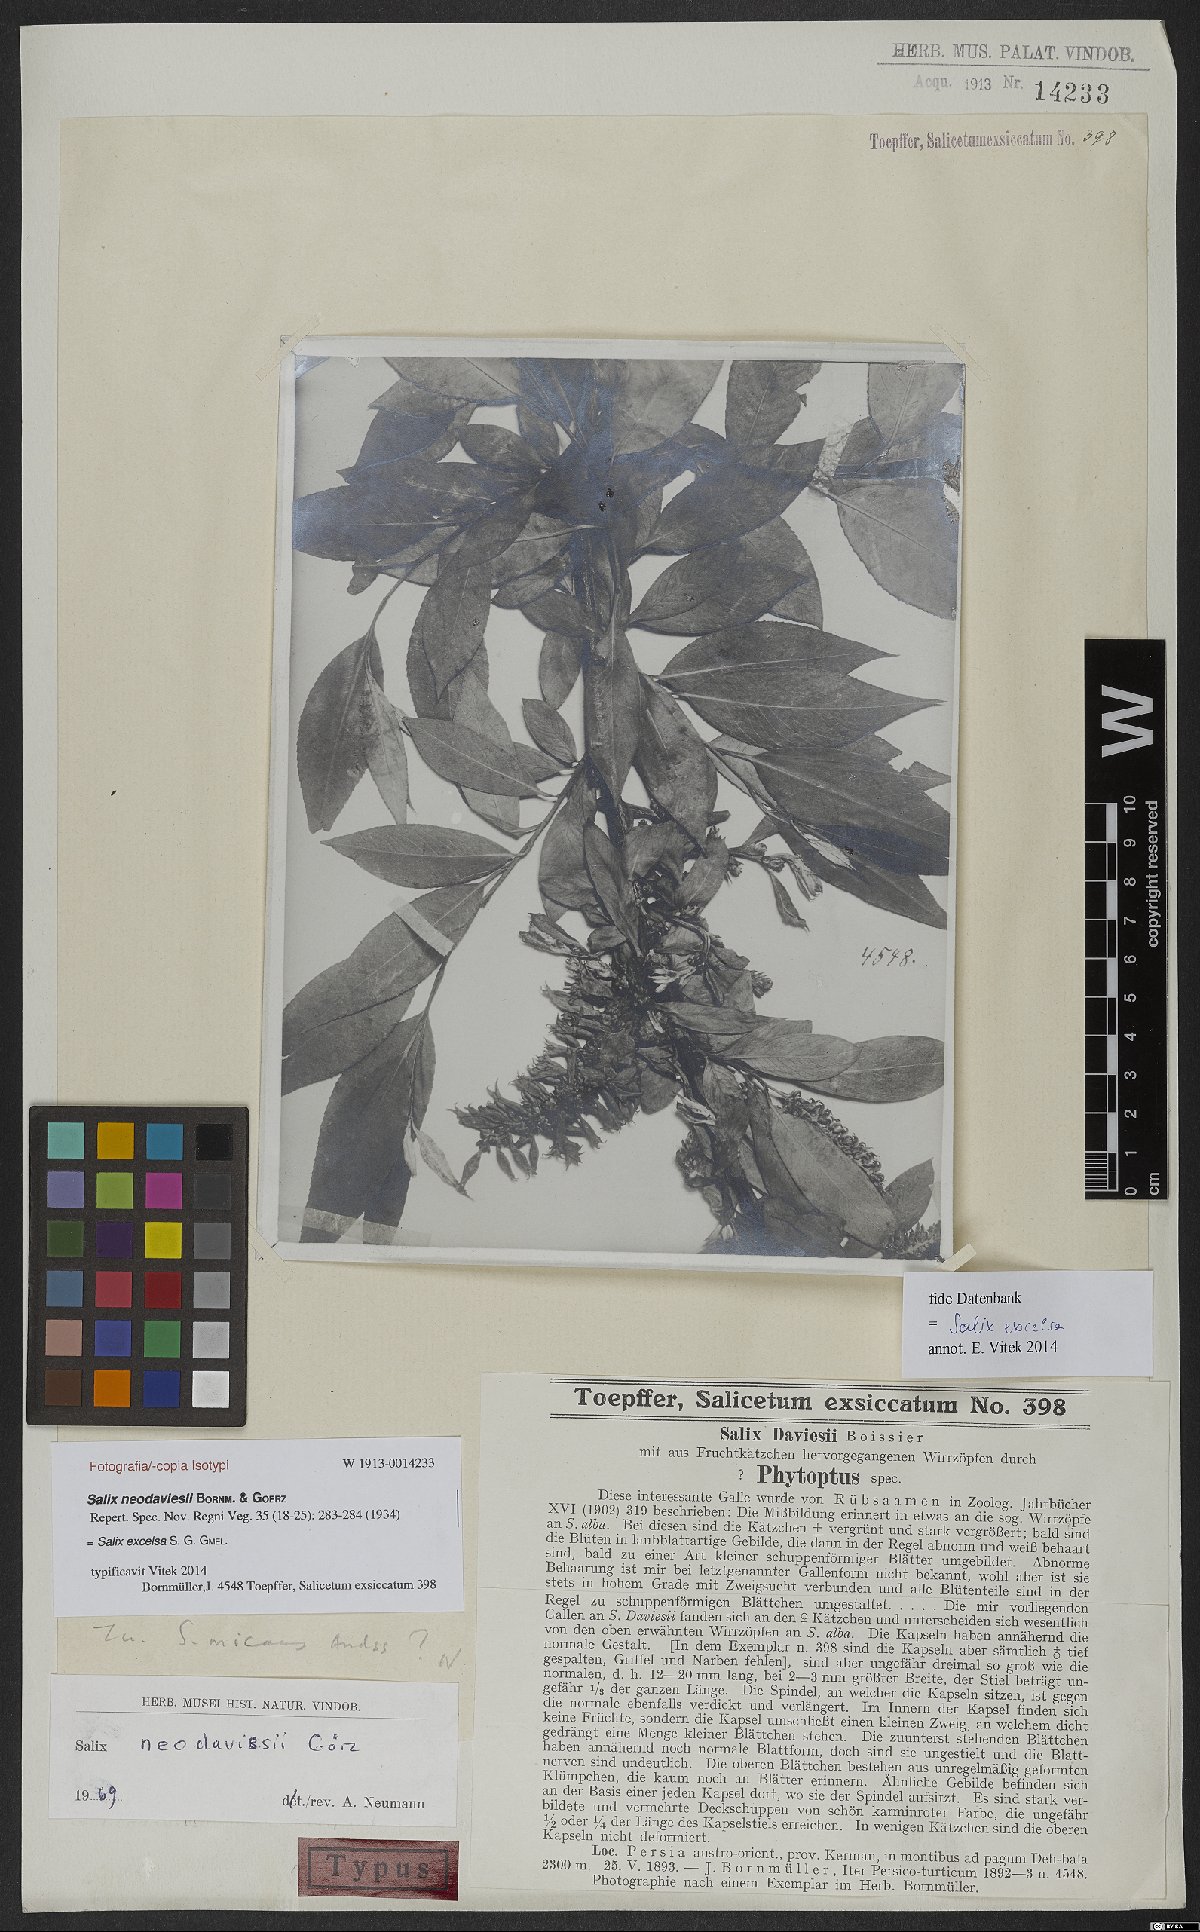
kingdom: Plantae
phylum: Tracheophyta
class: Magnoliopsida
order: Malpighiales
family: Salicaceae
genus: Salix
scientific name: Salix excelsa
